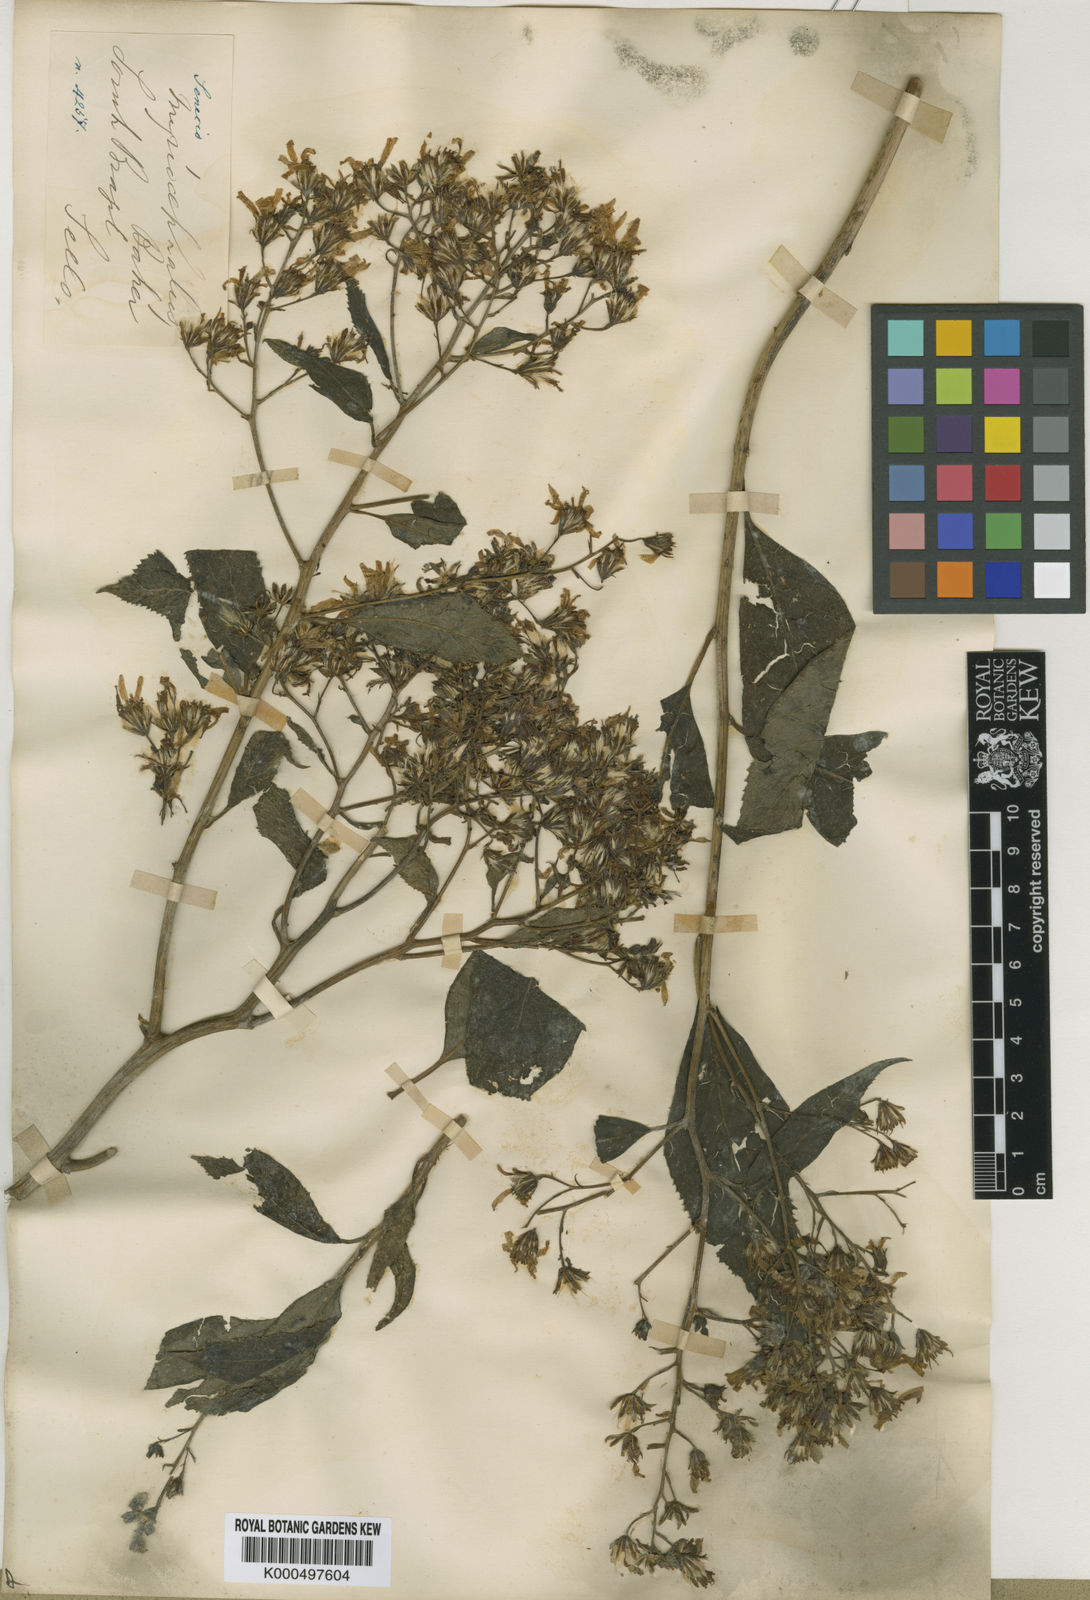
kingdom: Plantae
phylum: Tracheophyta
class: Magnoliopsida
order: Asterales
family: Asteraceae
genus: Dendrophorbium
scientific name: Dendrophorbium pluricephalum
